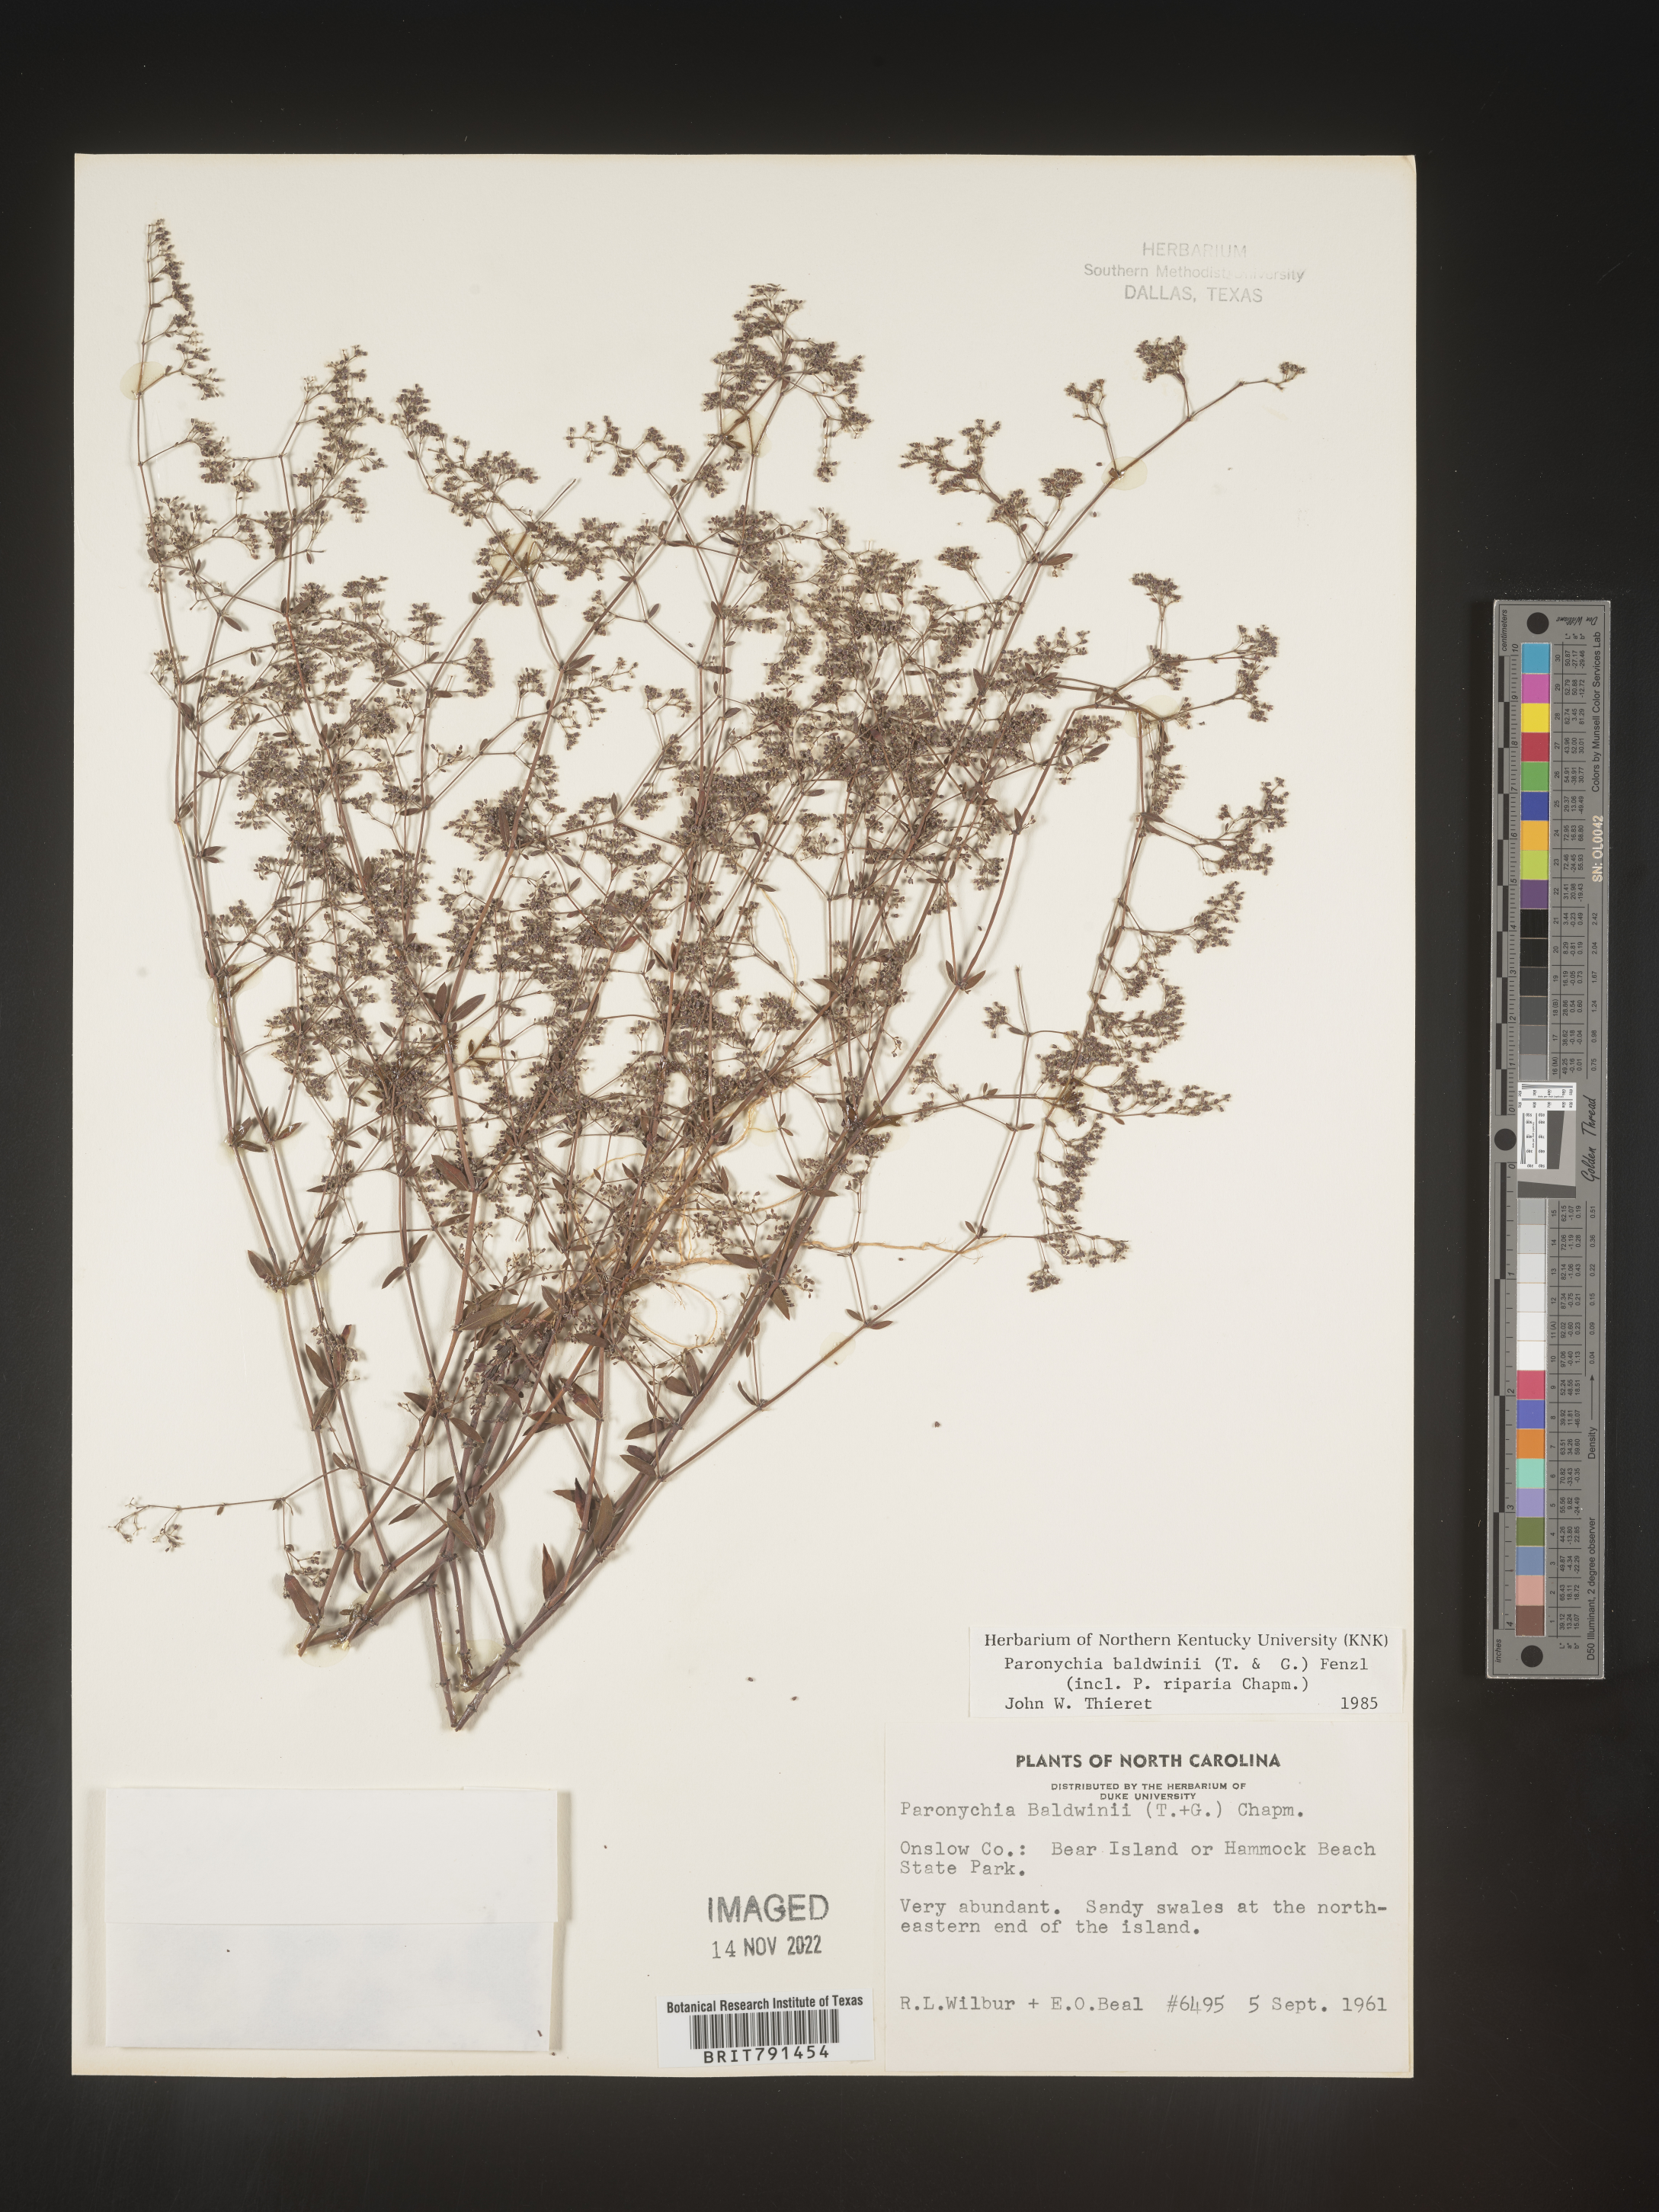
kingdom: Plantae
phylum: Tracheophyta
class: Magnoliopsida
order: Caryophyllales
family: Caryophyllaceae
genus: Paronychia
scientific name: Paronychia baldwinii
